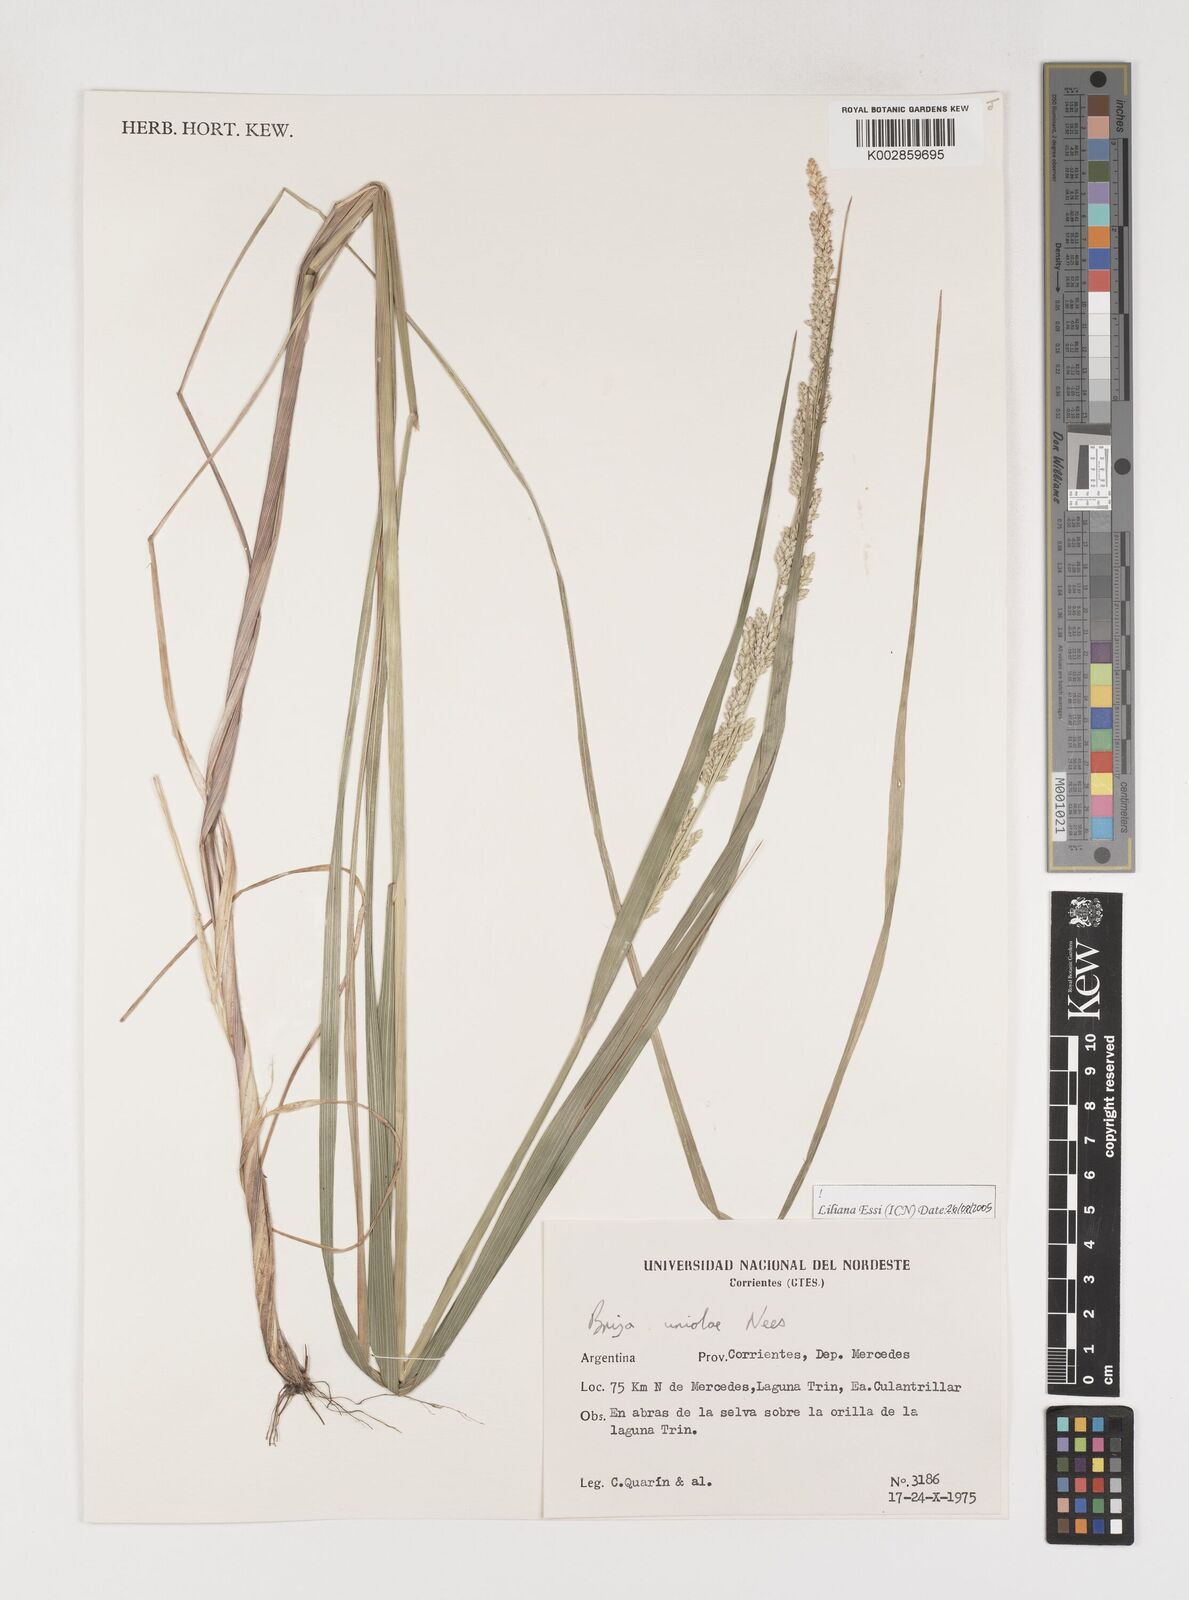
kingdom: Plantae
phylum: Tracheophyta
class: Liliopsida
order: Poales
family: Poaceae
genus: Poidium
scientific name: Poidium uniolae
